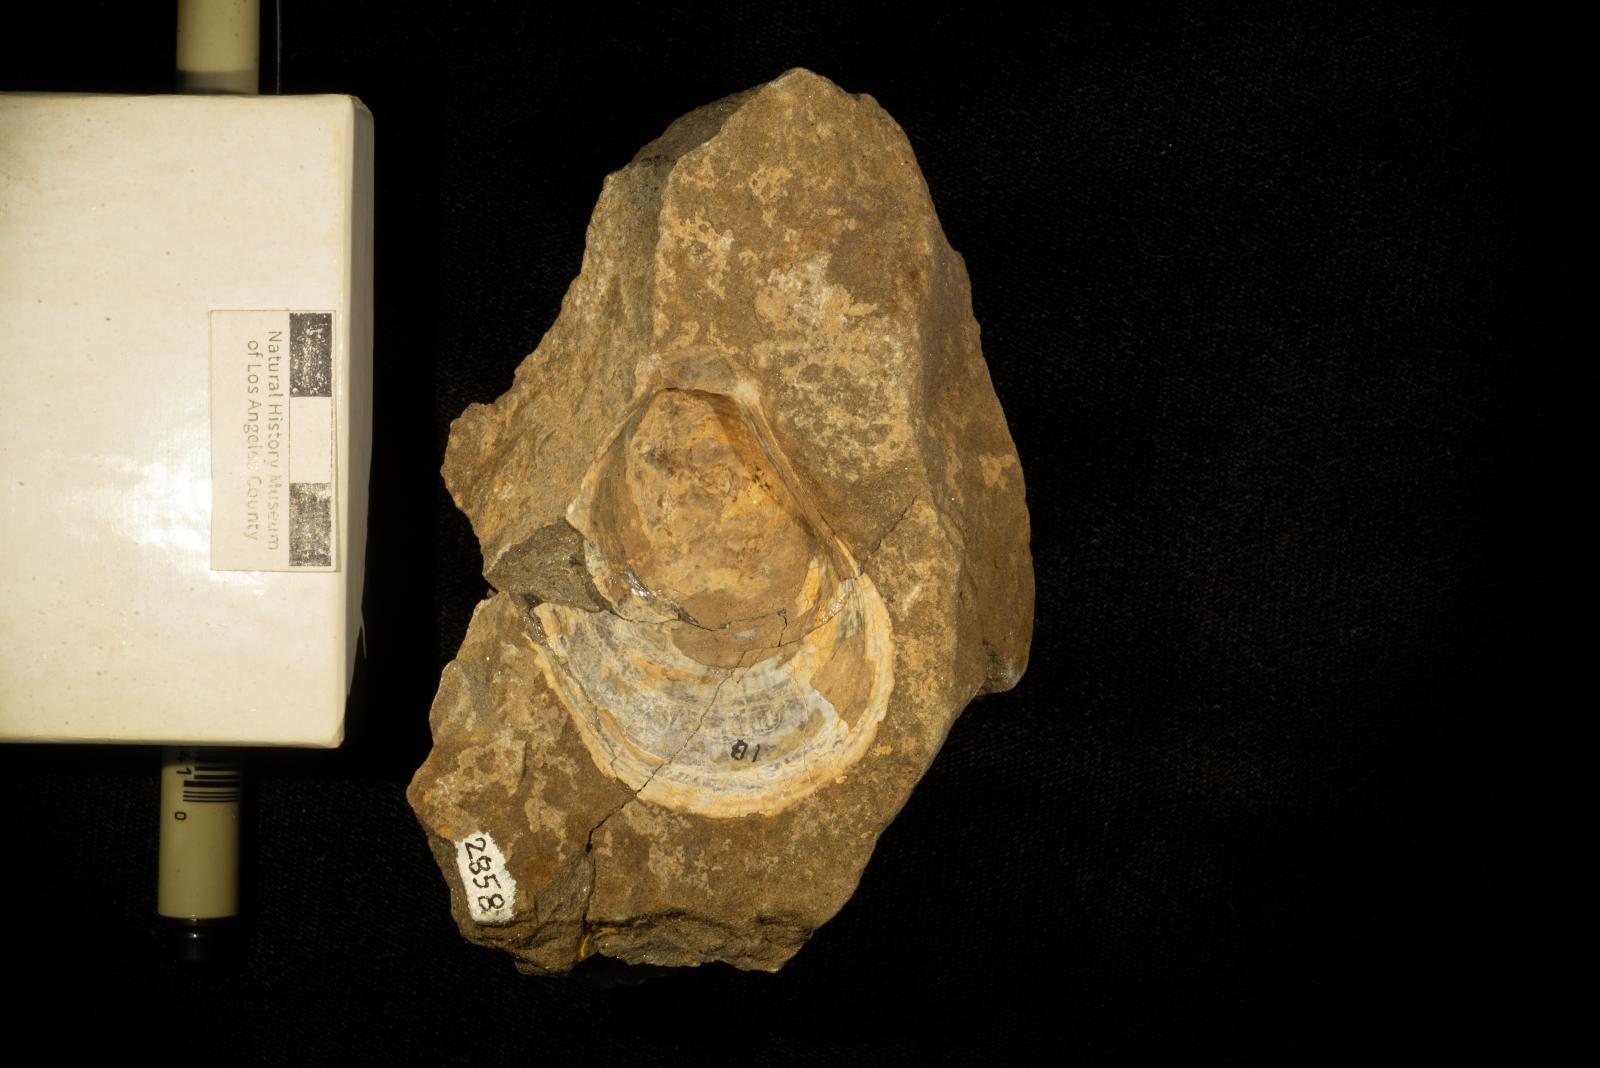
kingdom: Animalia
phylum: Mollusca
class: Bivalvia
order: Limida
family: Limidae
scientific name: Limidae
